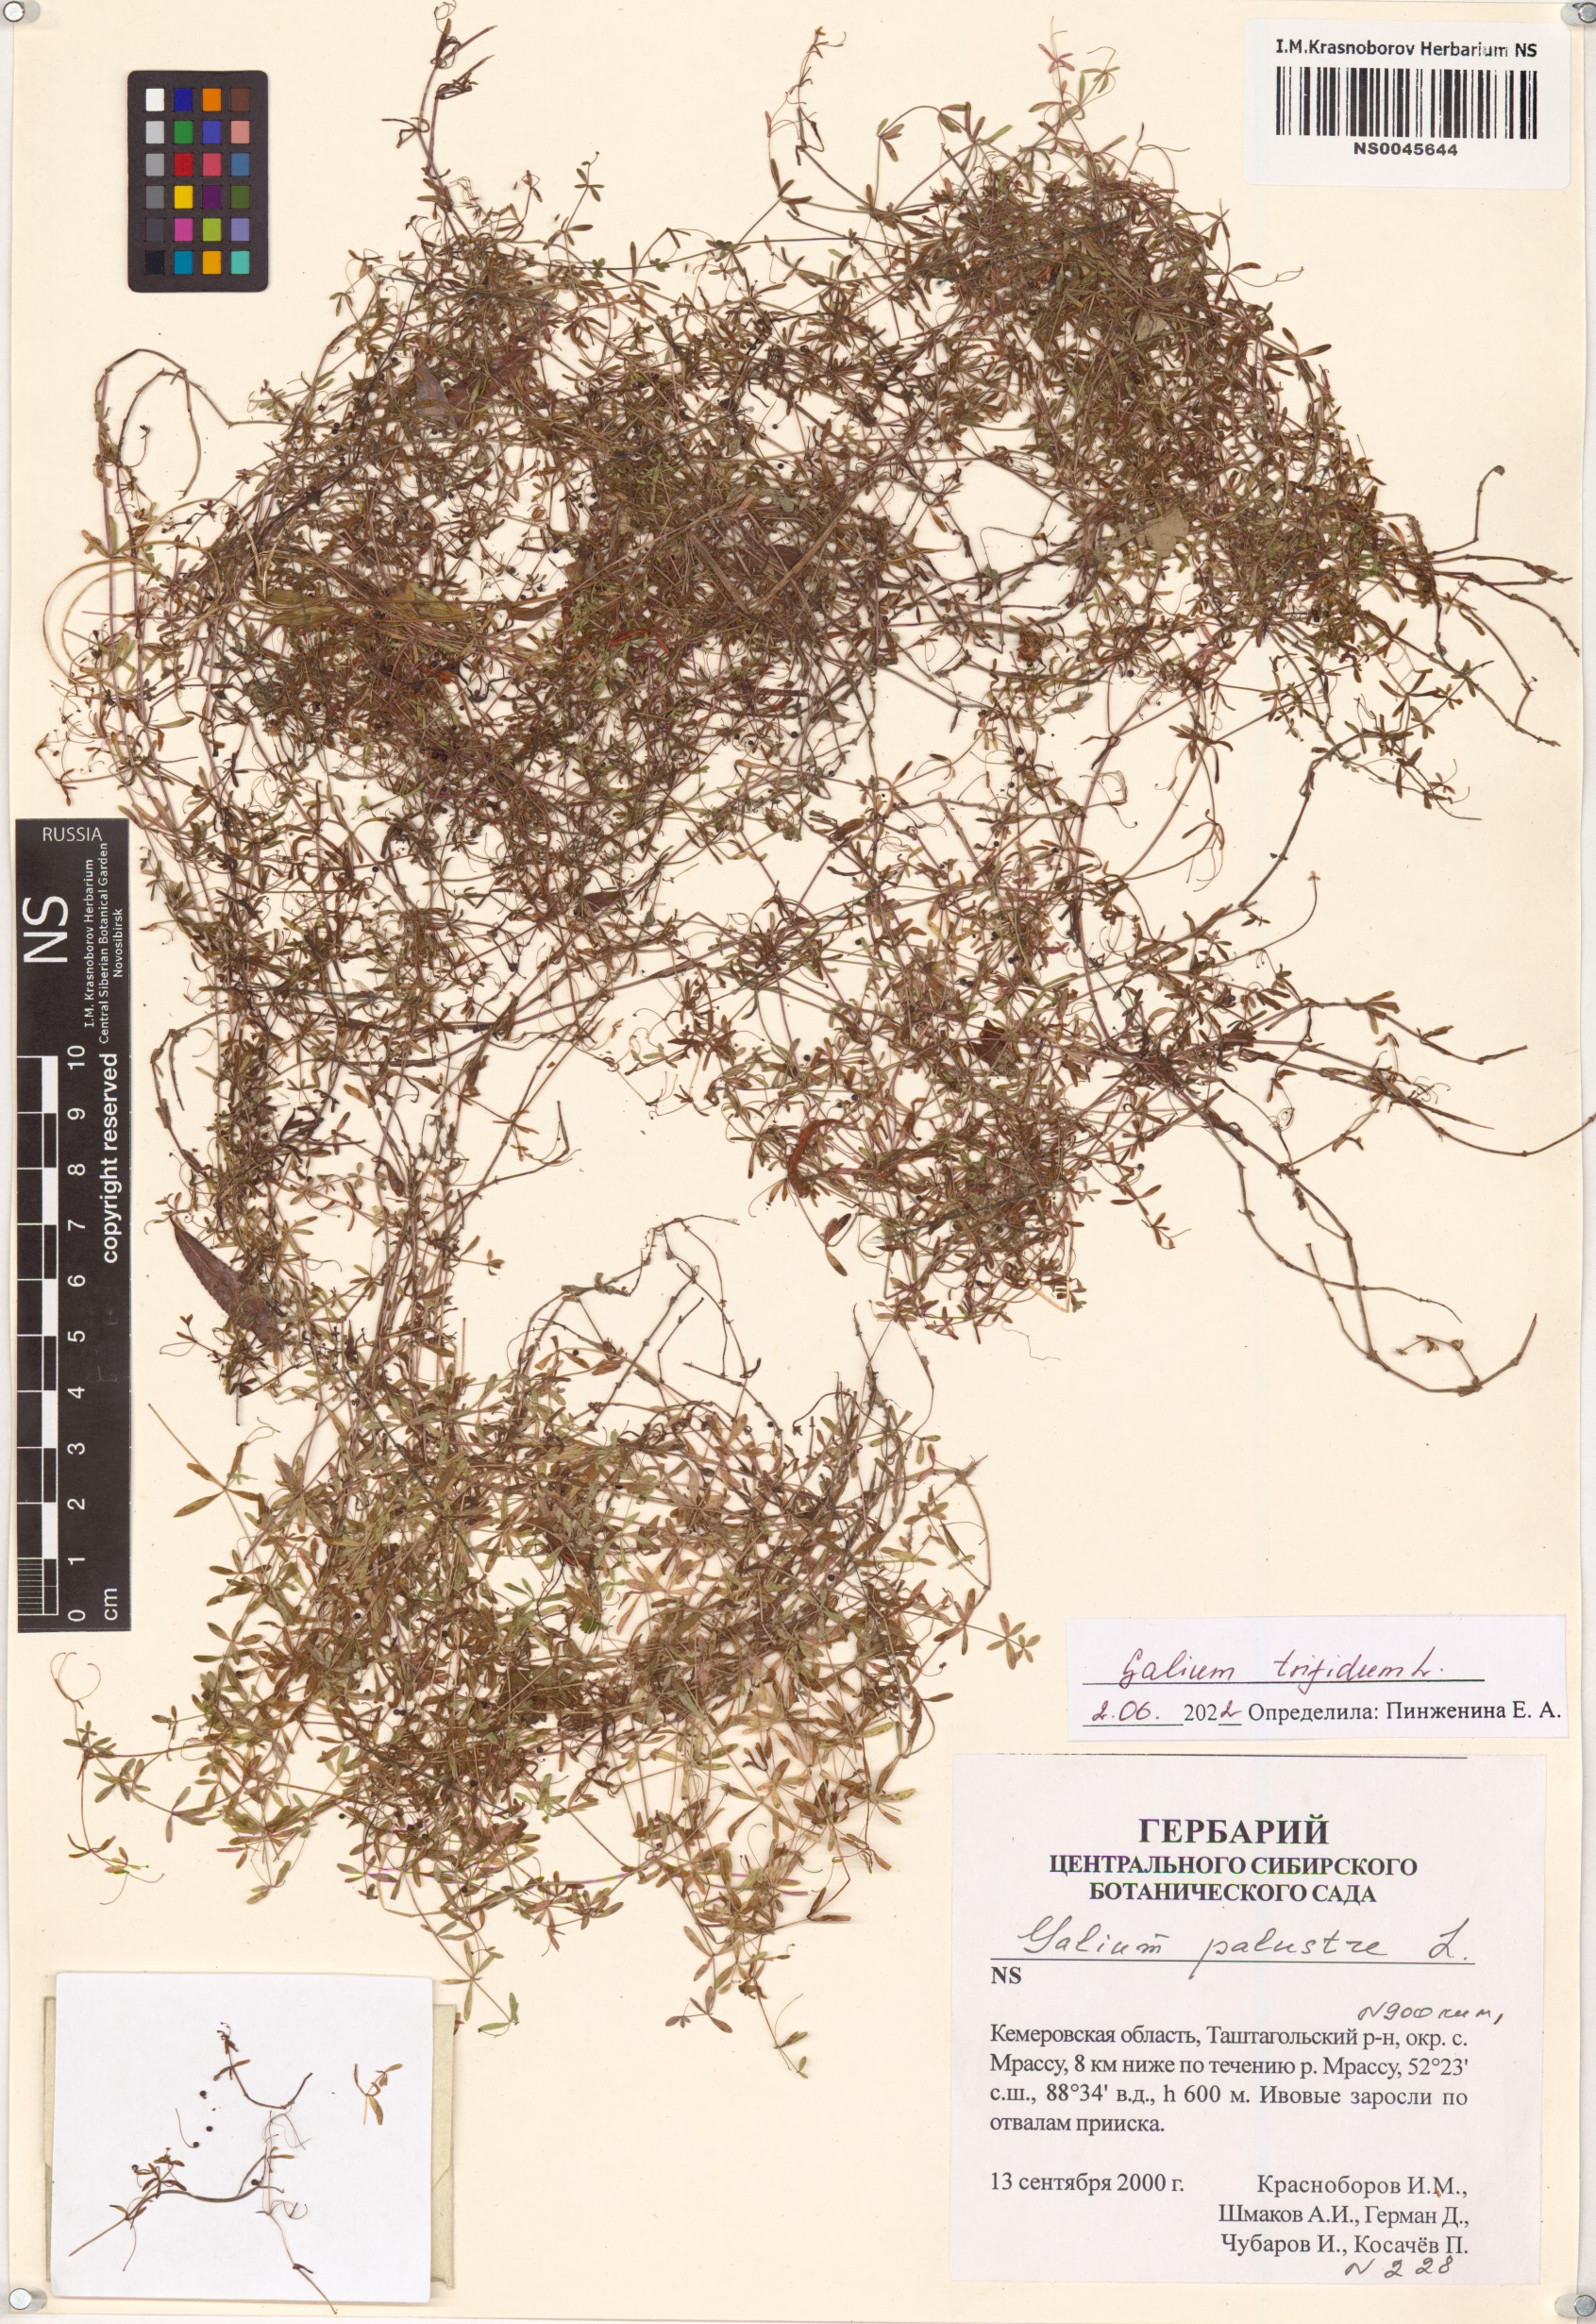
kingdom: Plantae
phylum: Tracheophyta
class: Magnoliopsida
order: Gentianales
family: Rubiaceae
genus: Galium
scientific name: Galium trifidum
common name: Small bedstraw
